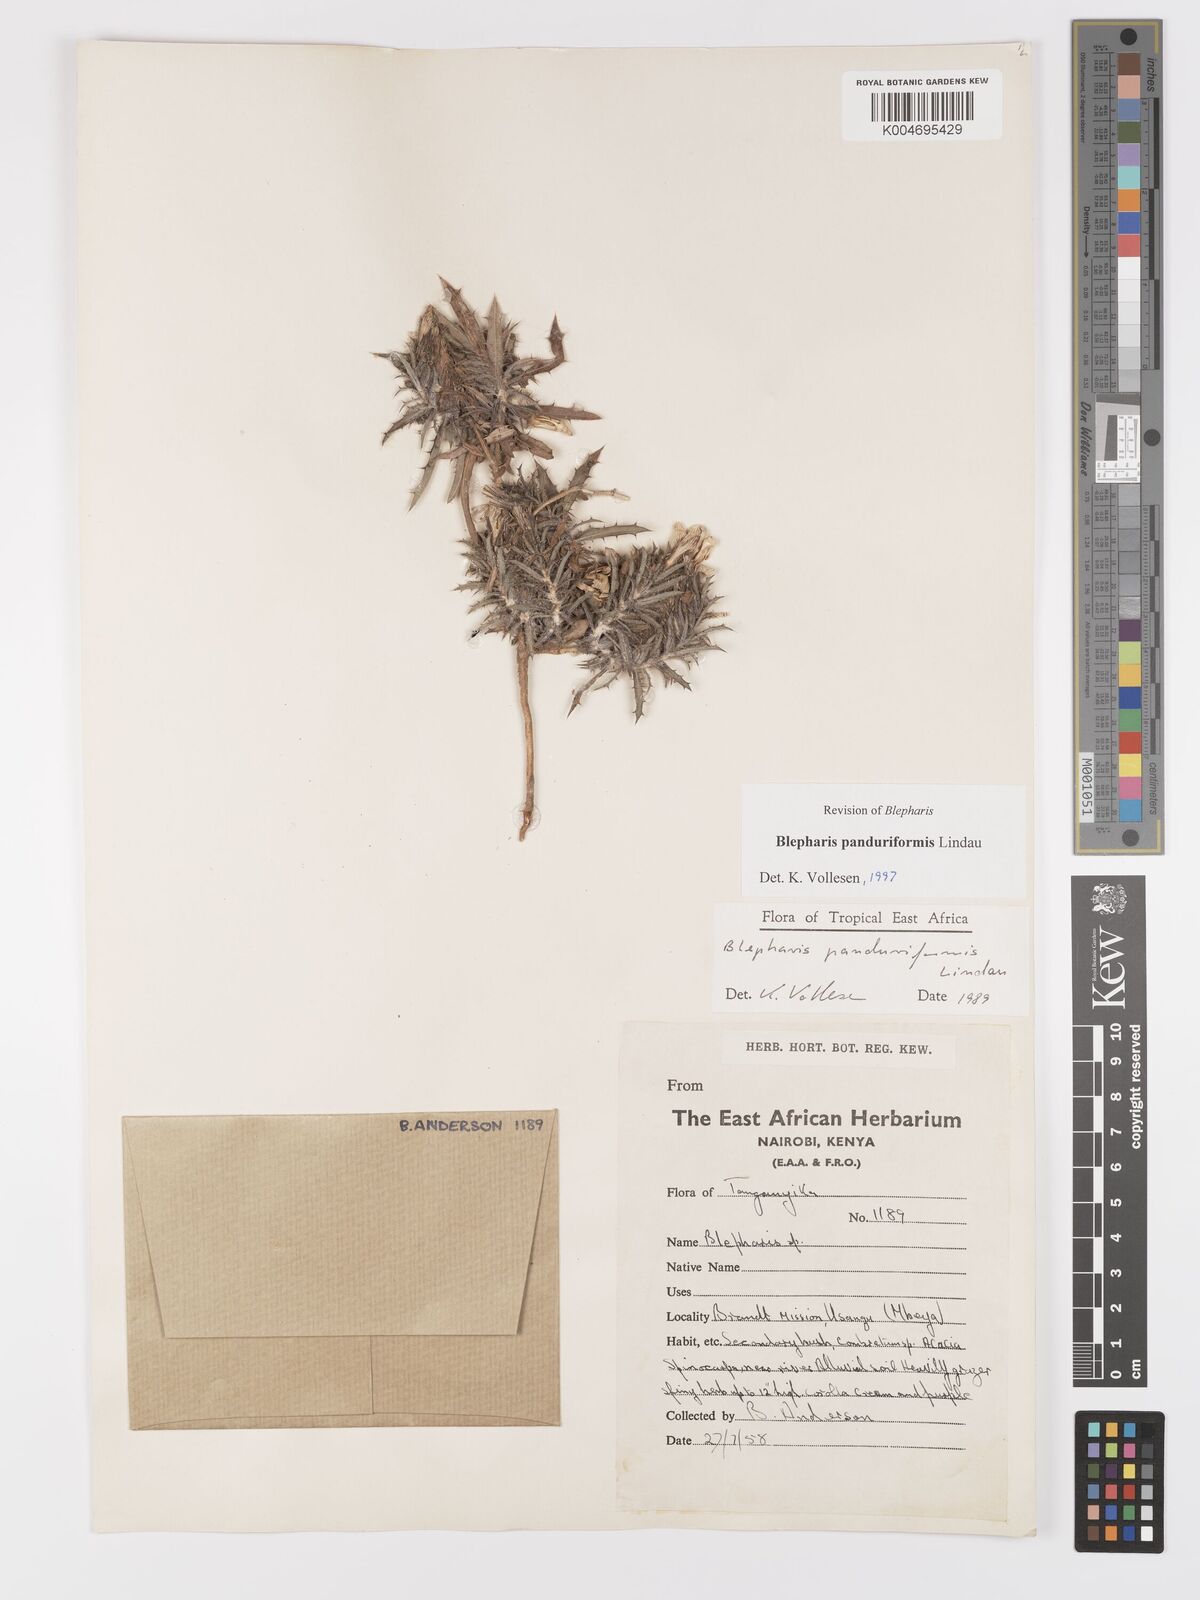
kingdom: Plantae
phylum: Tracheophyta
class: Magnoliopsida
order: Lamiales
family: Acanthaceae
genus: Blepharis
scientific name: Blepharis panduriformis
